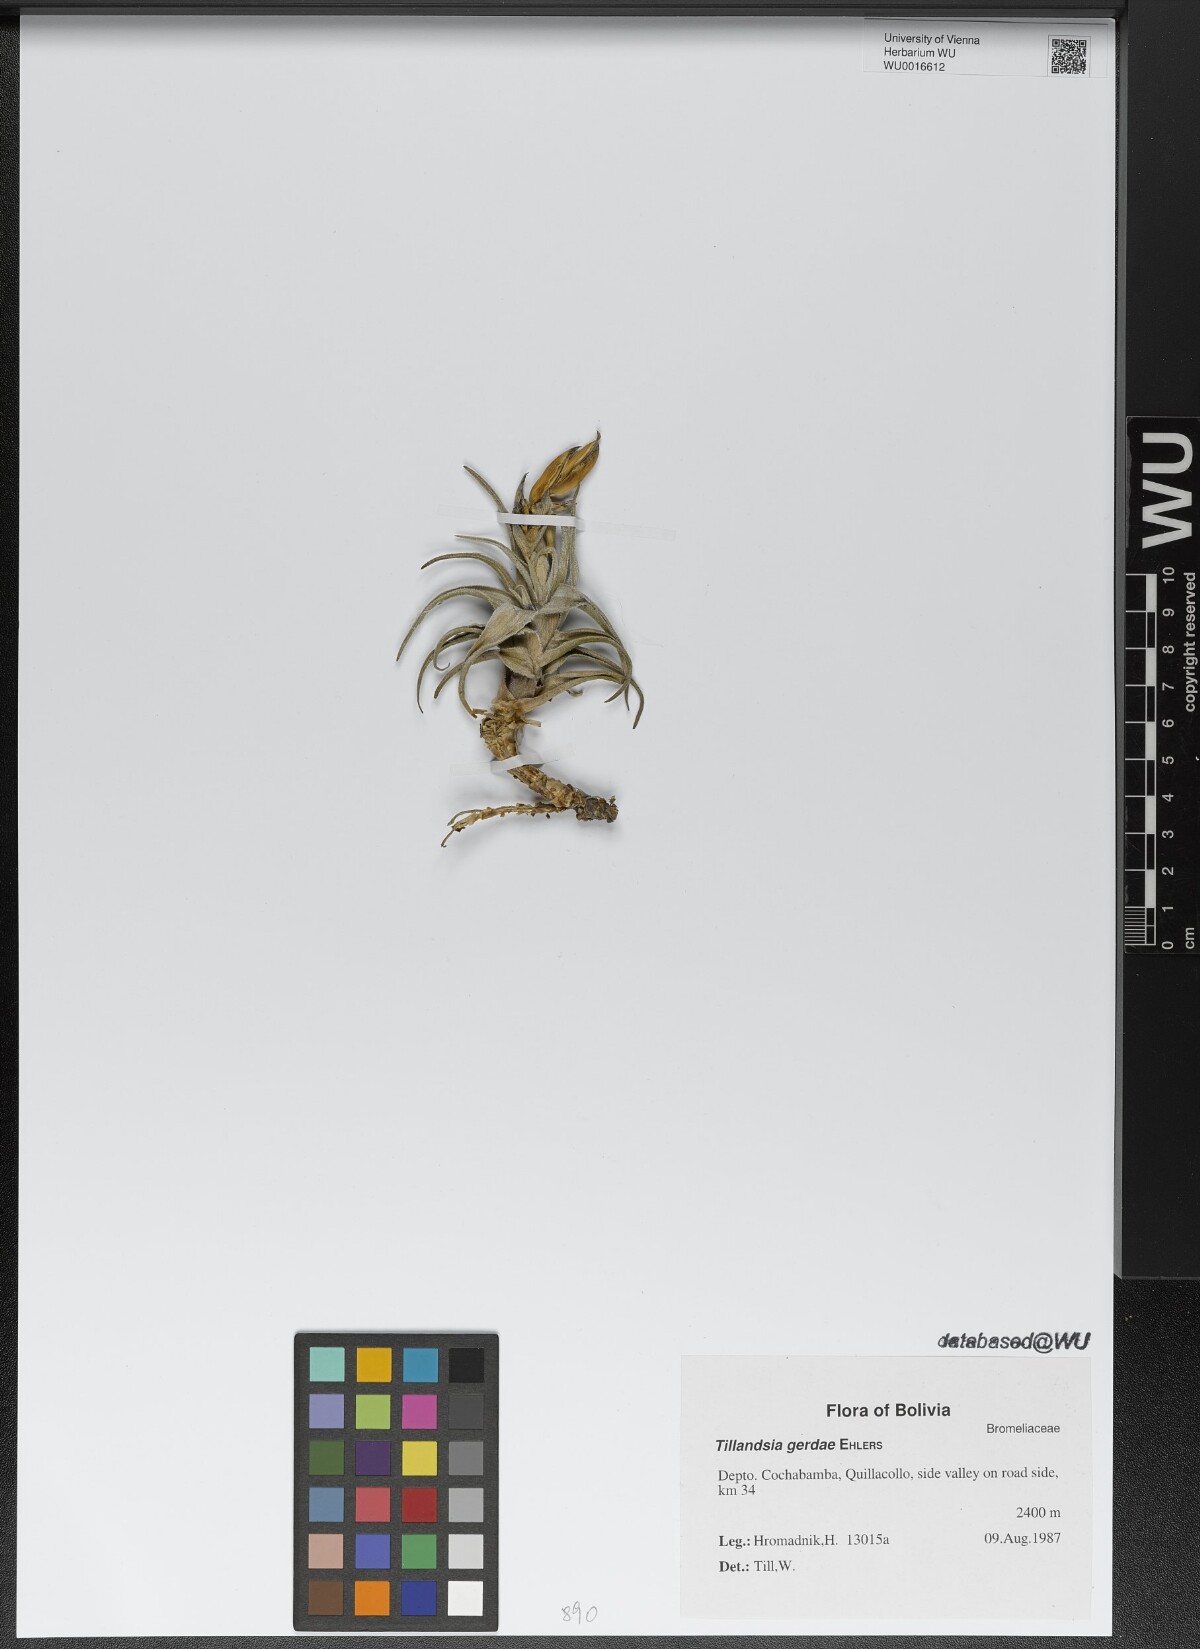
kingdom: Plantae
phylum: Tracheophyta
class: Liliopsida
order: Poales
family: Bromeliaceae
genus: Tillandsia
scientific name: Tillandsia gerdae
